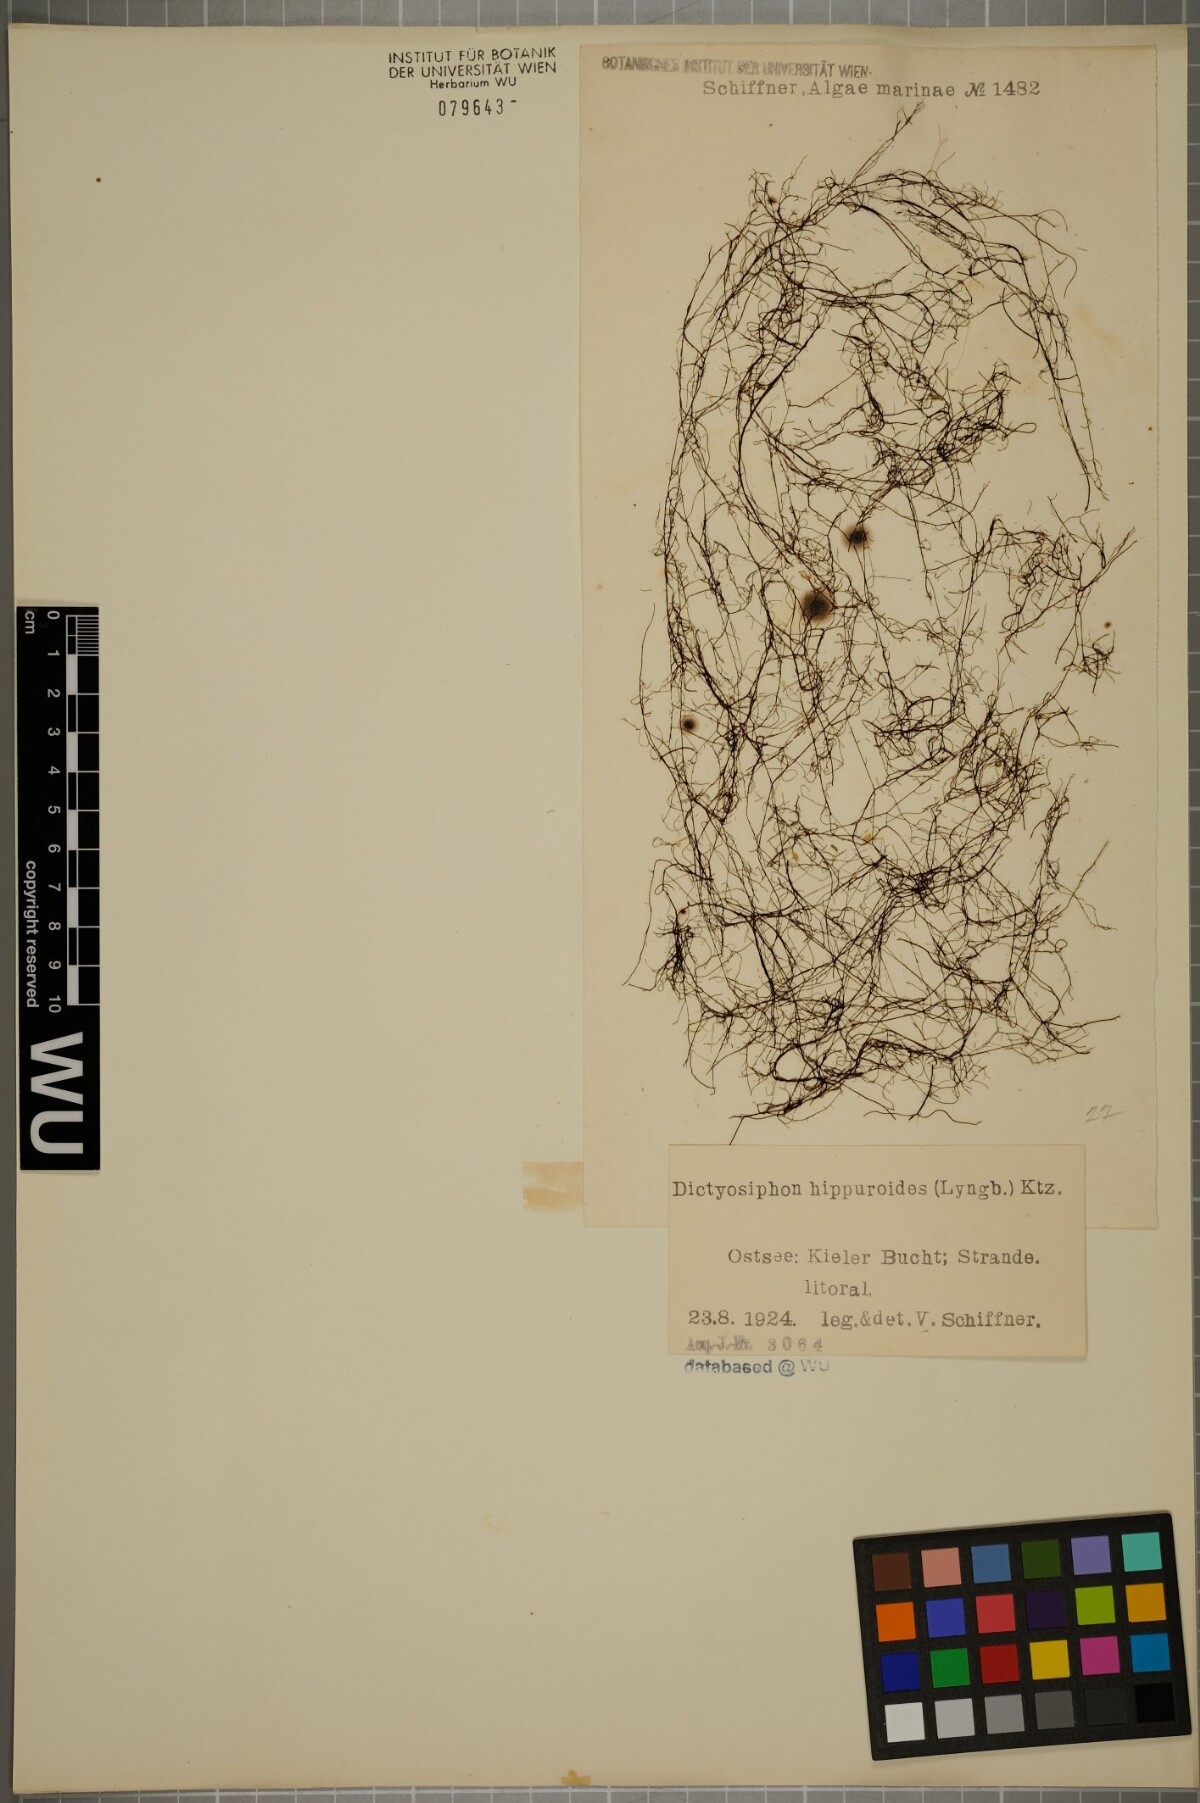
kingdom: Chromista
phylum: Ochrophyta
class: Phaeophyceae
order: Ectocarpales
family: Chordariaceae
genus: Dictyosiphon
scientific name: Dictyosiphon foeniculaceus
